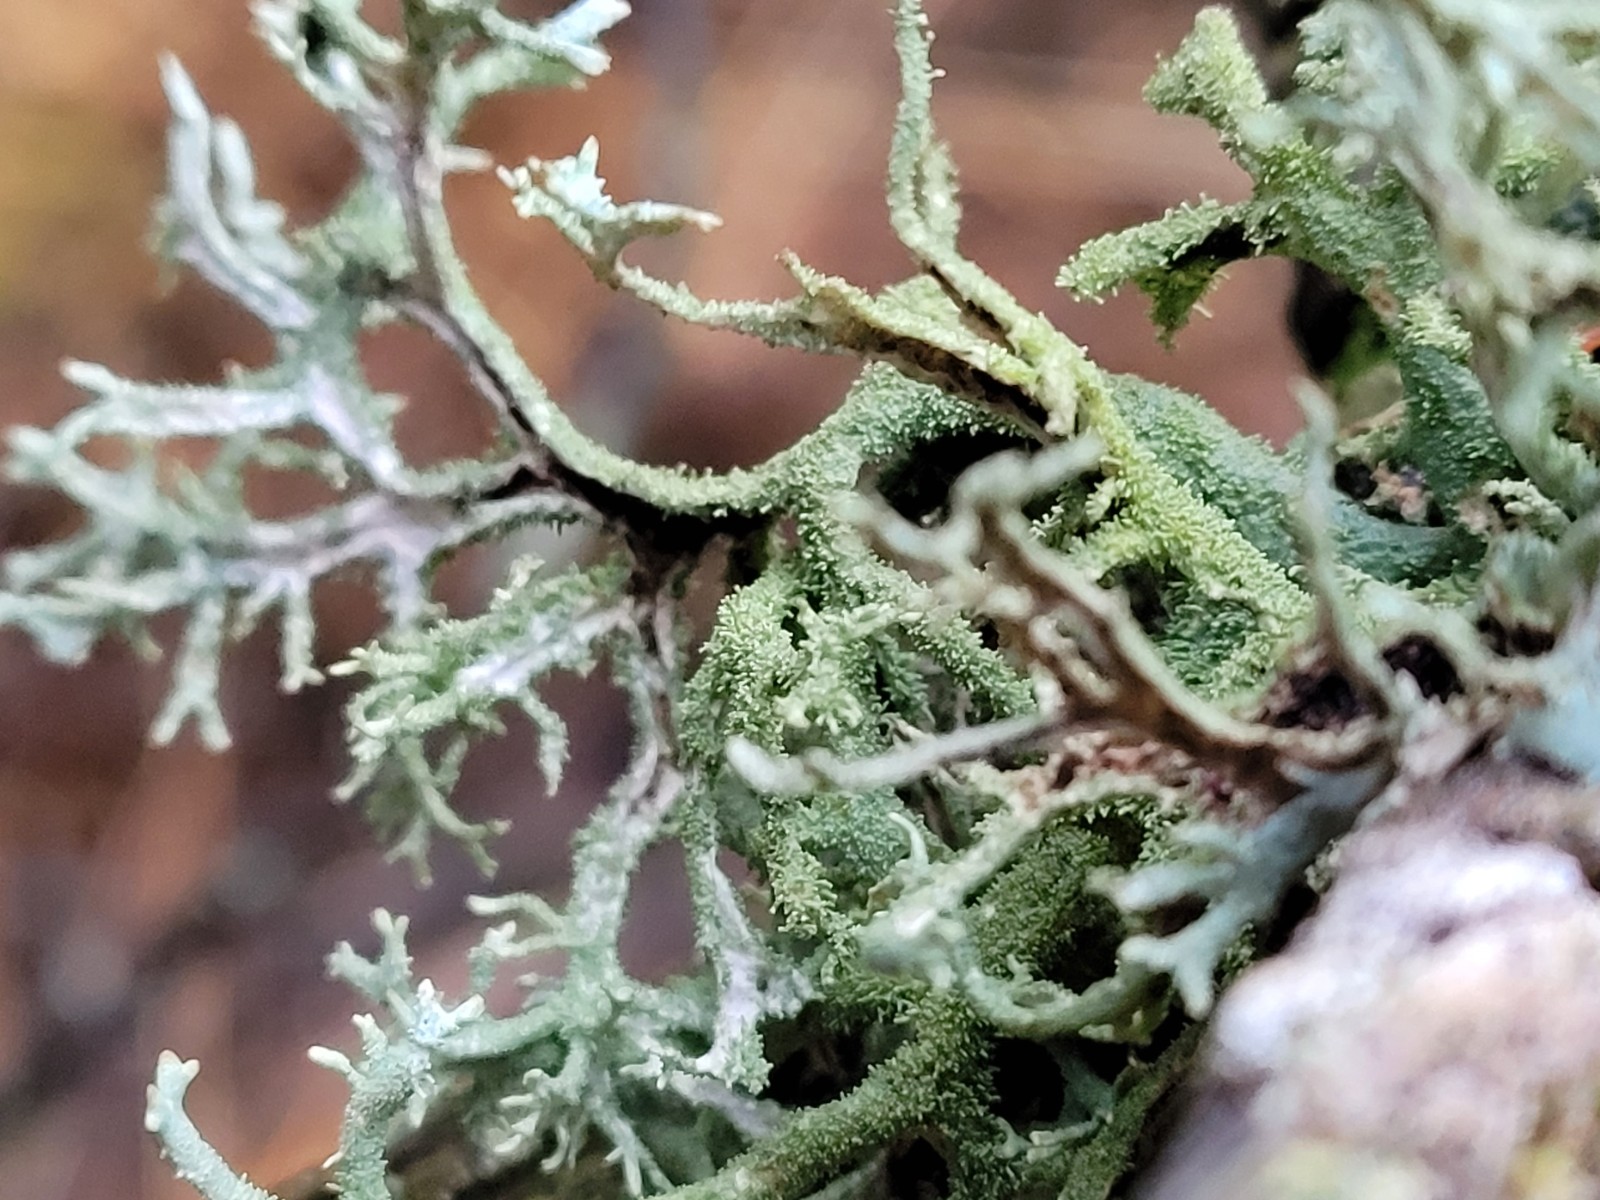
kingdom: Fungi
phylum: Ascomycota
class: Lecanoromycetes
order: Lecanorales
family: Parmeliaceae
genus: Pseudevernia
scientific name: Pseudevernia furfuracea
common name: grå fyrrelav
